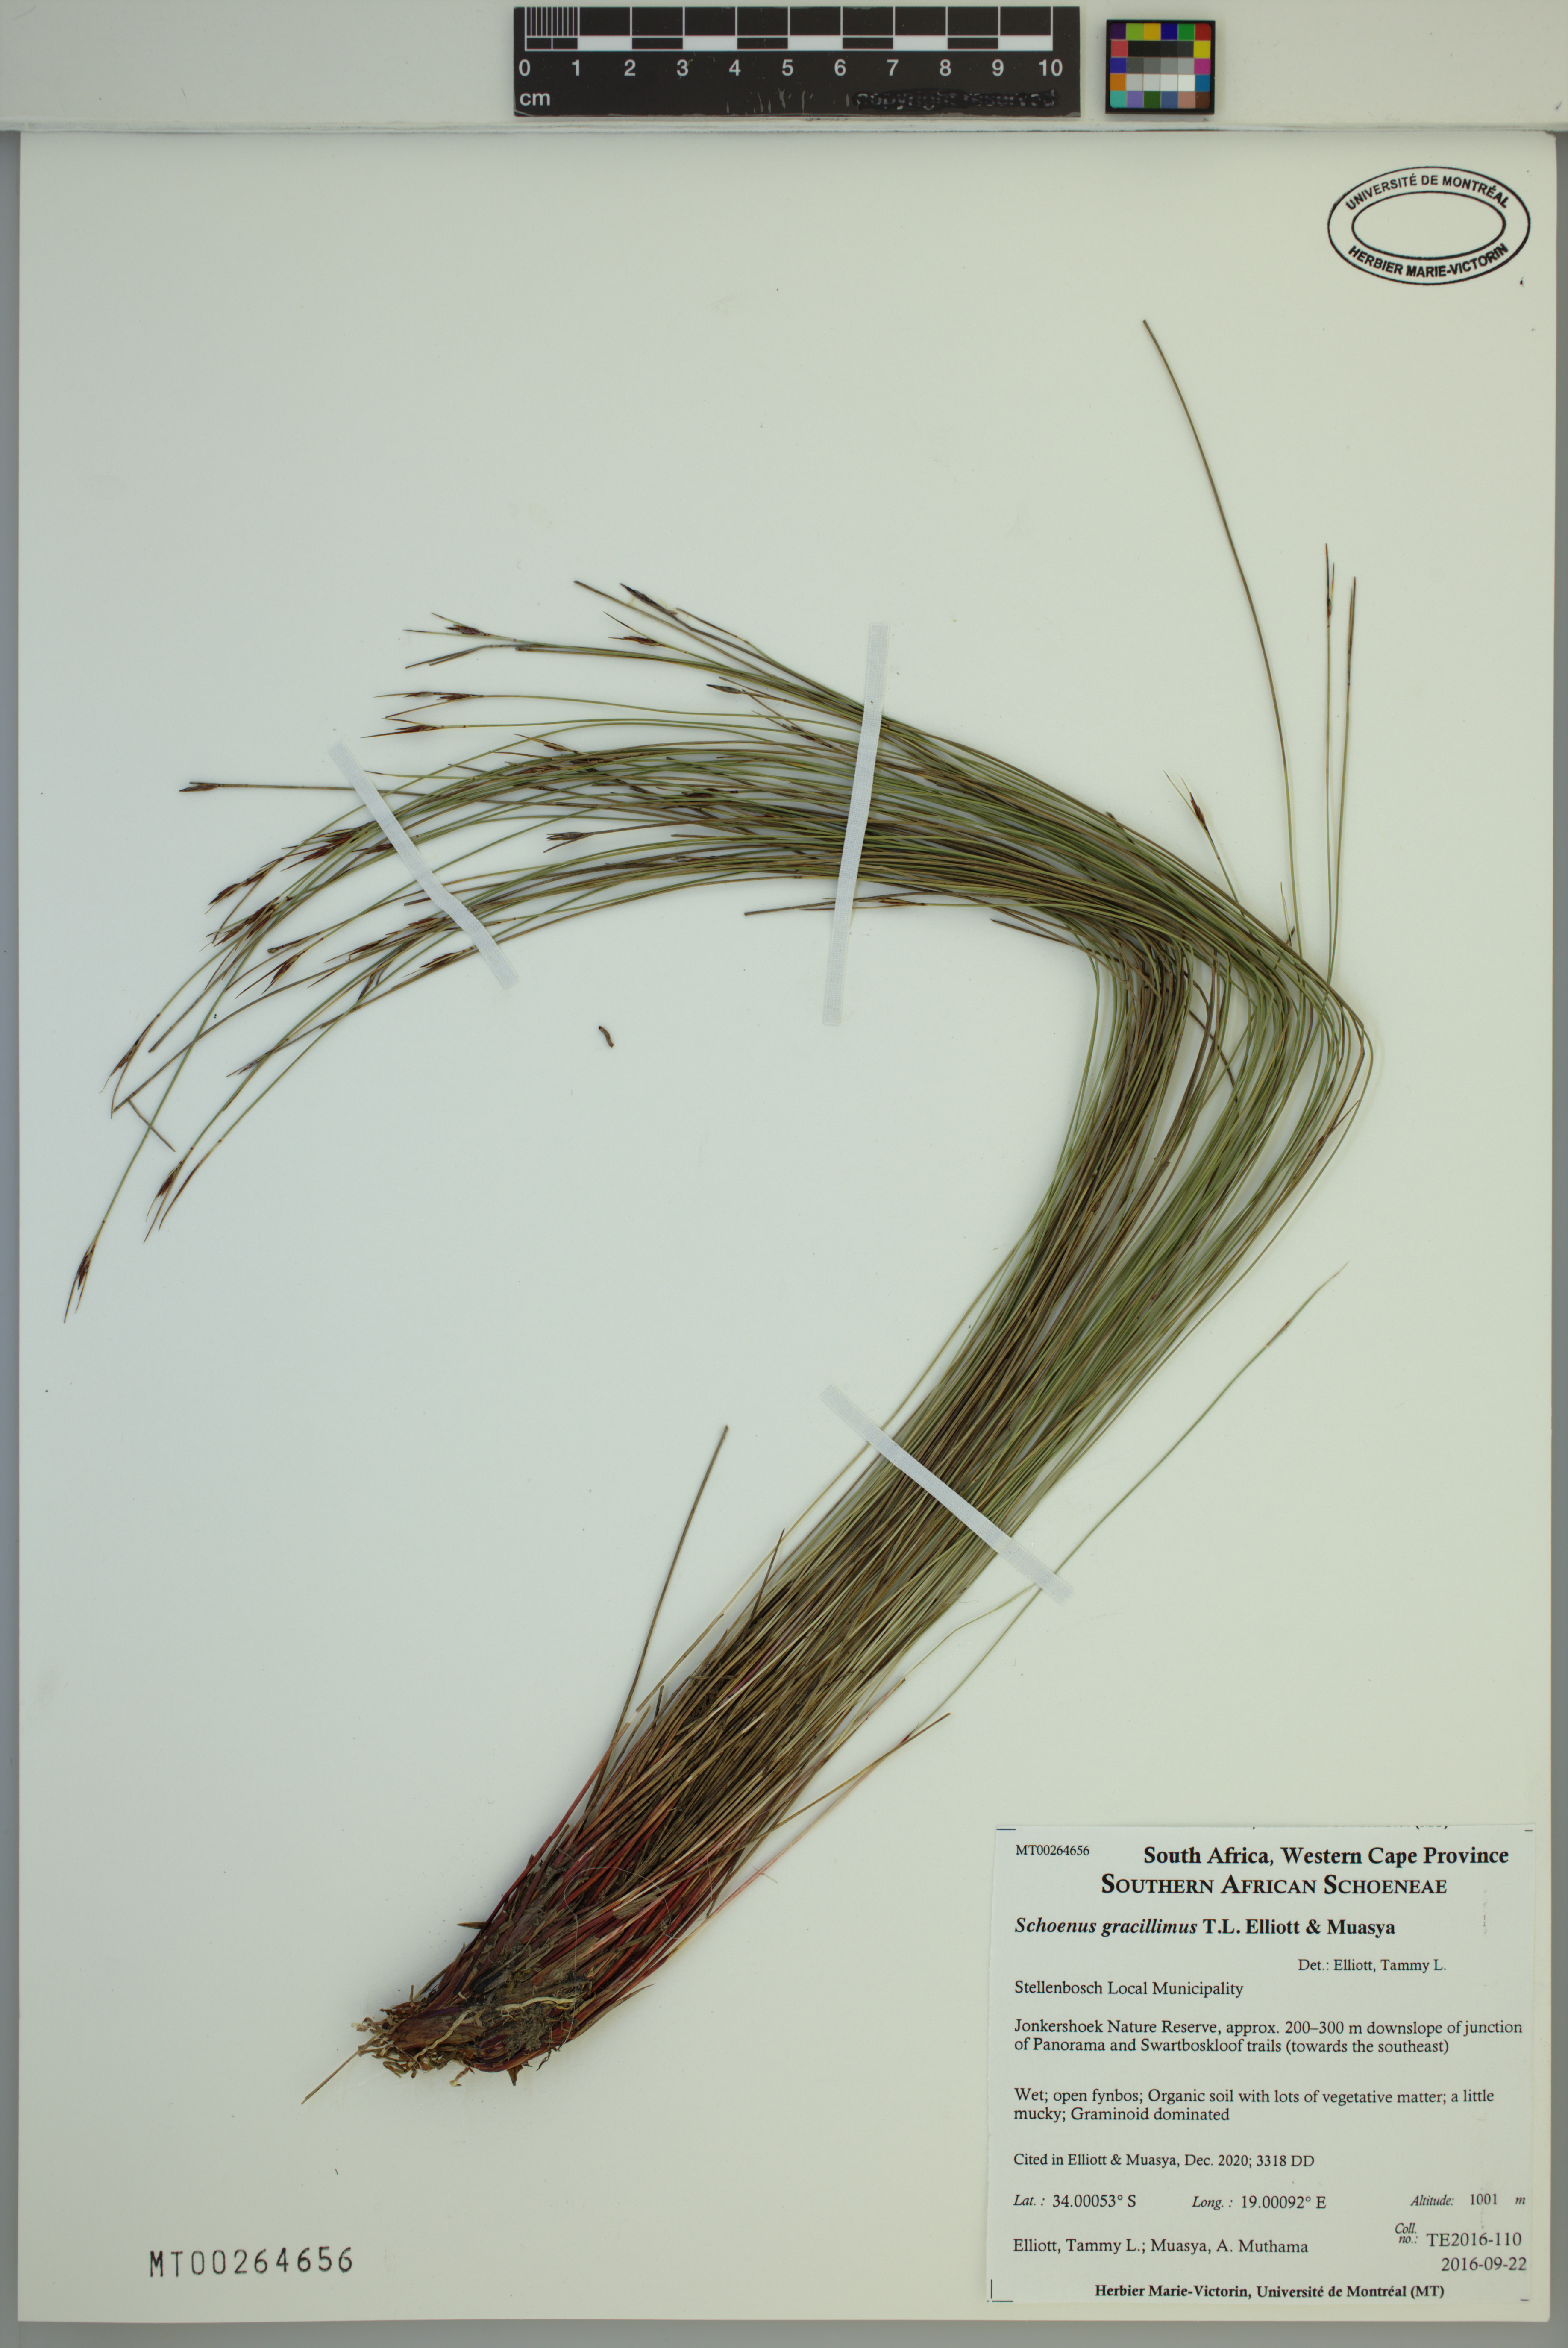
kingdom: Plantae
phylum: Tracheophyta
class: Liliopsida
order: Poales
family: Cyperaceae
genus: Schoenus
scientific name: Schoenus gracillimus
